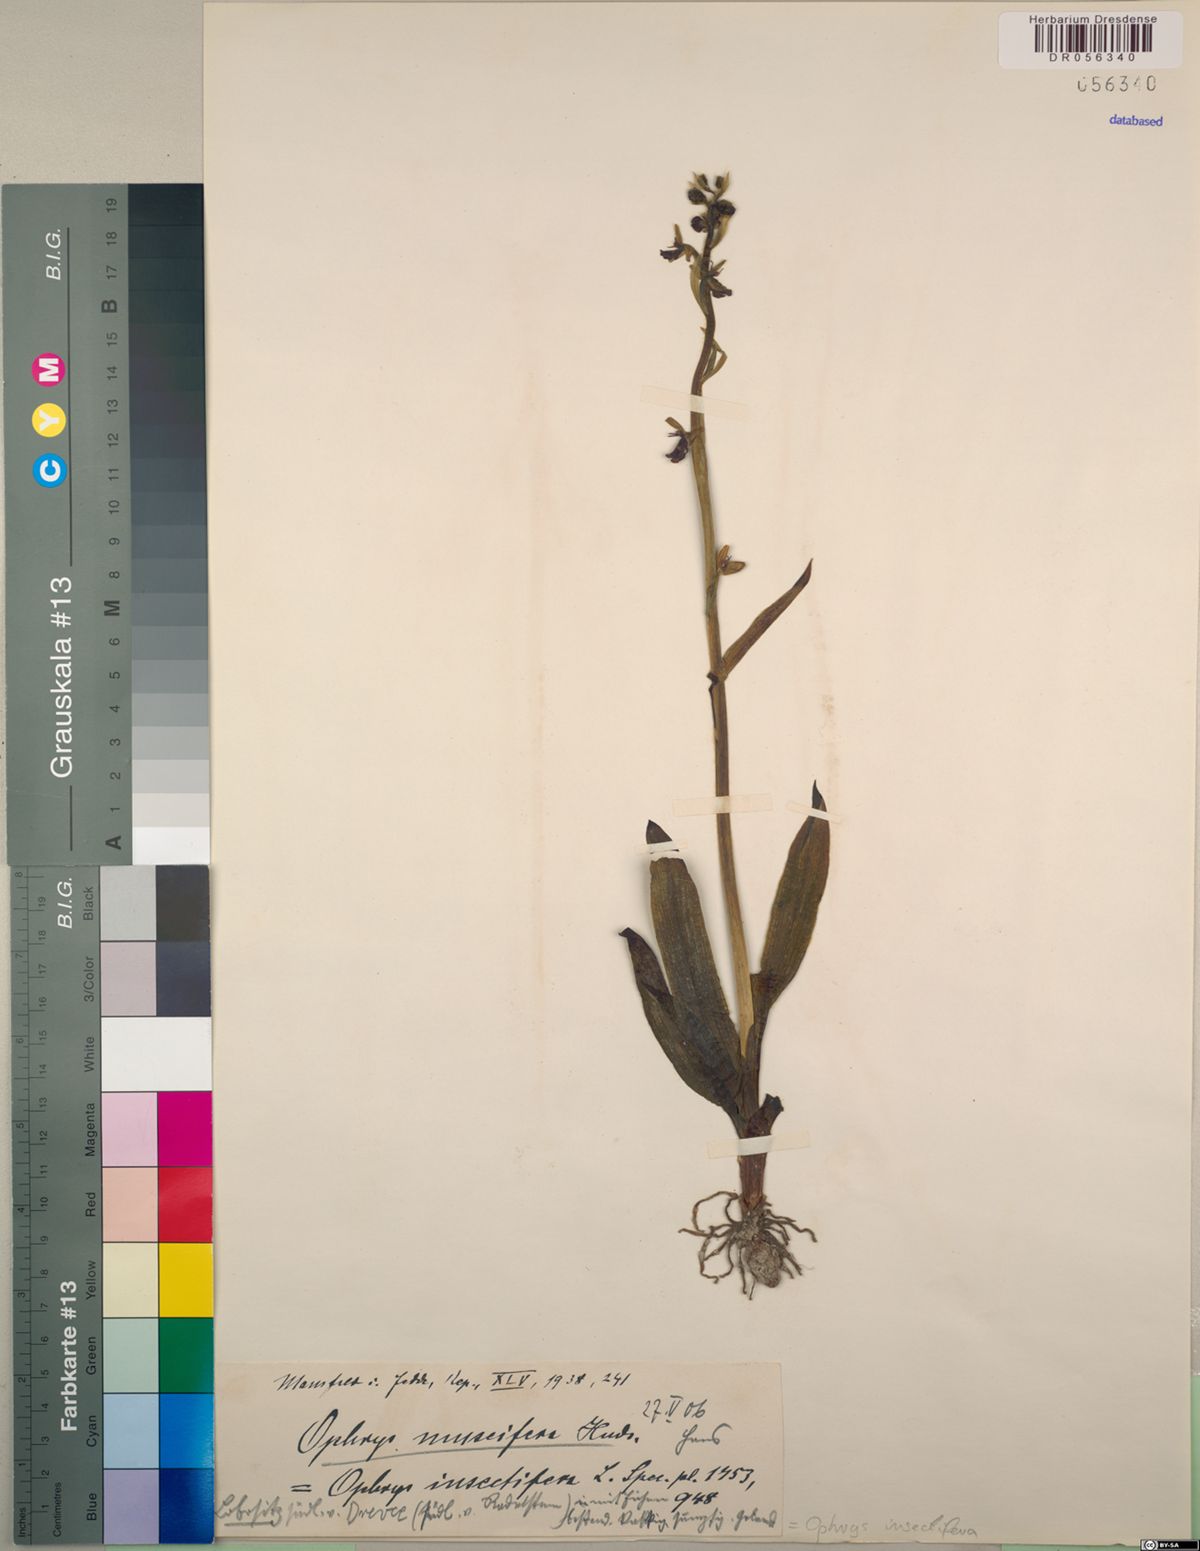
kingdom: Plantae
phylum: Tracheophyta
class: Liliopsida
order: Asparagales
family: Orchidaceae
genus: Ophrys
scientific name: Ophrys insectifera
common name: Fly orchid
